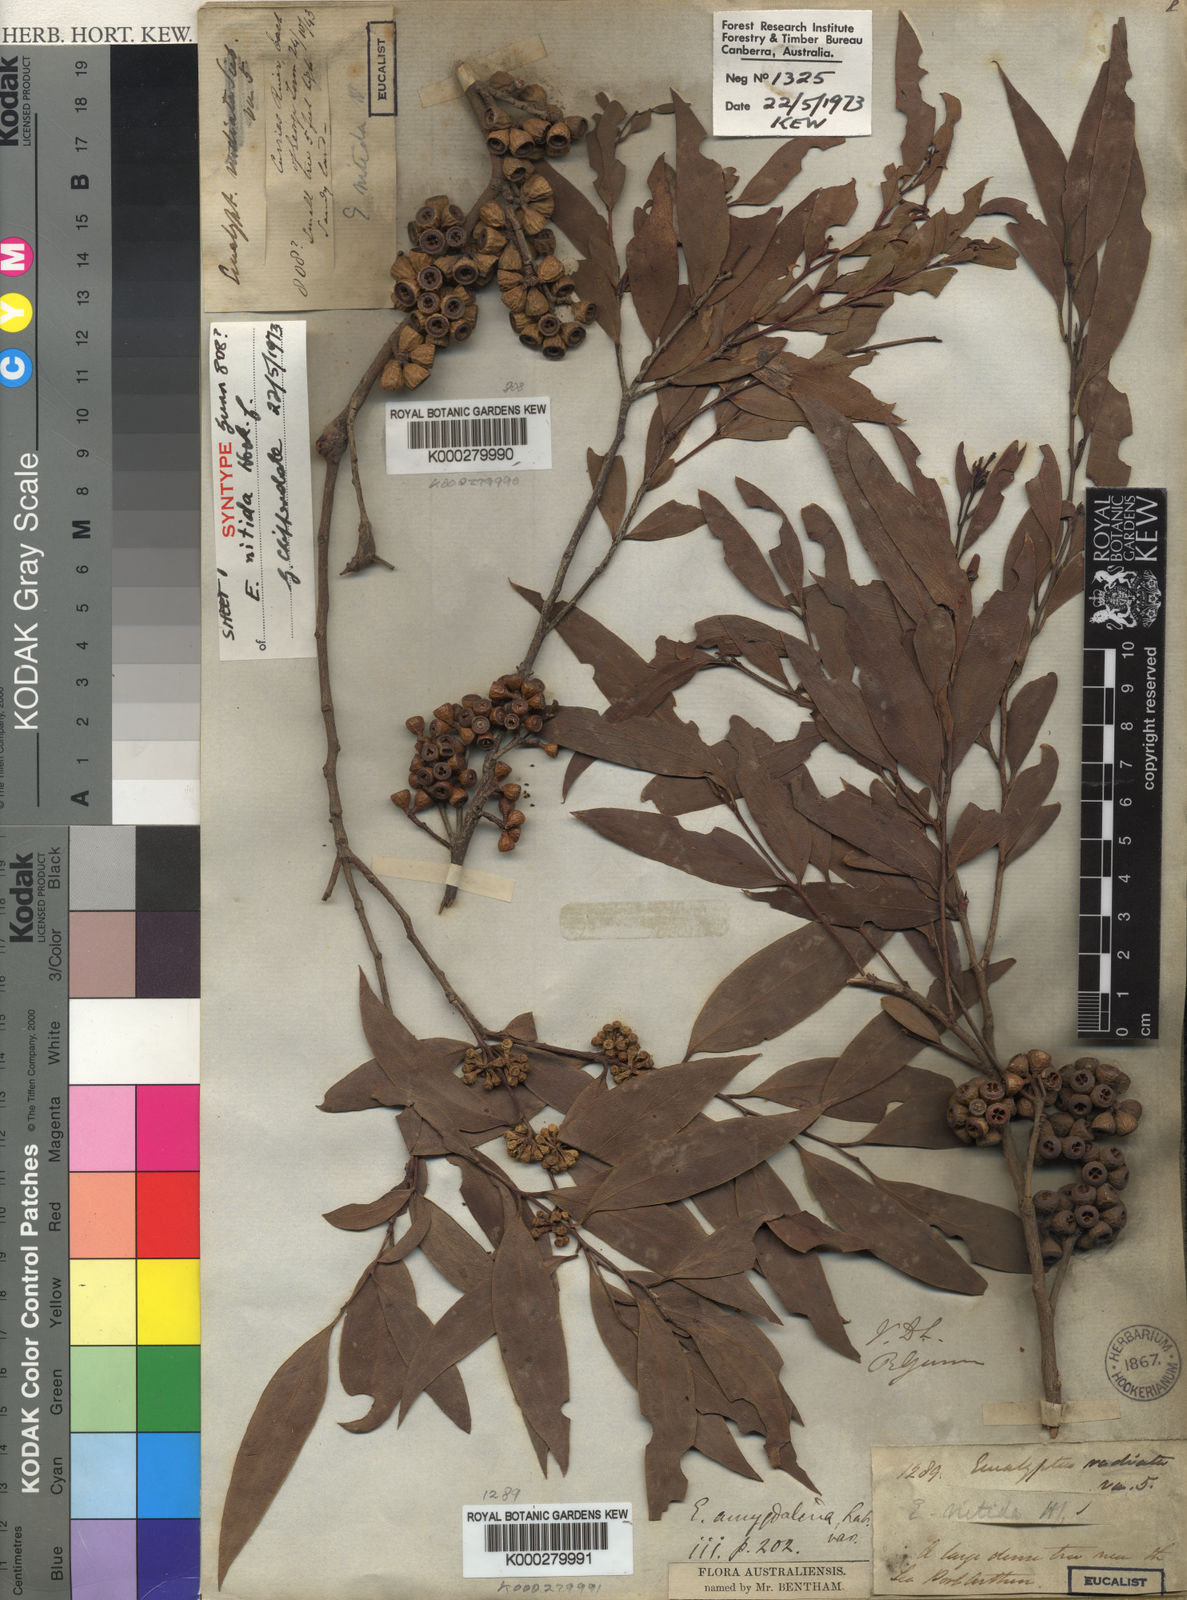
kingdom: Plantae
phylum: Tracheophyta
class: Magnoliopsida
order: Myrtales
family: Myrtaceae
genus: Eucalyptus
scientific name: Eucalyptus nitida
